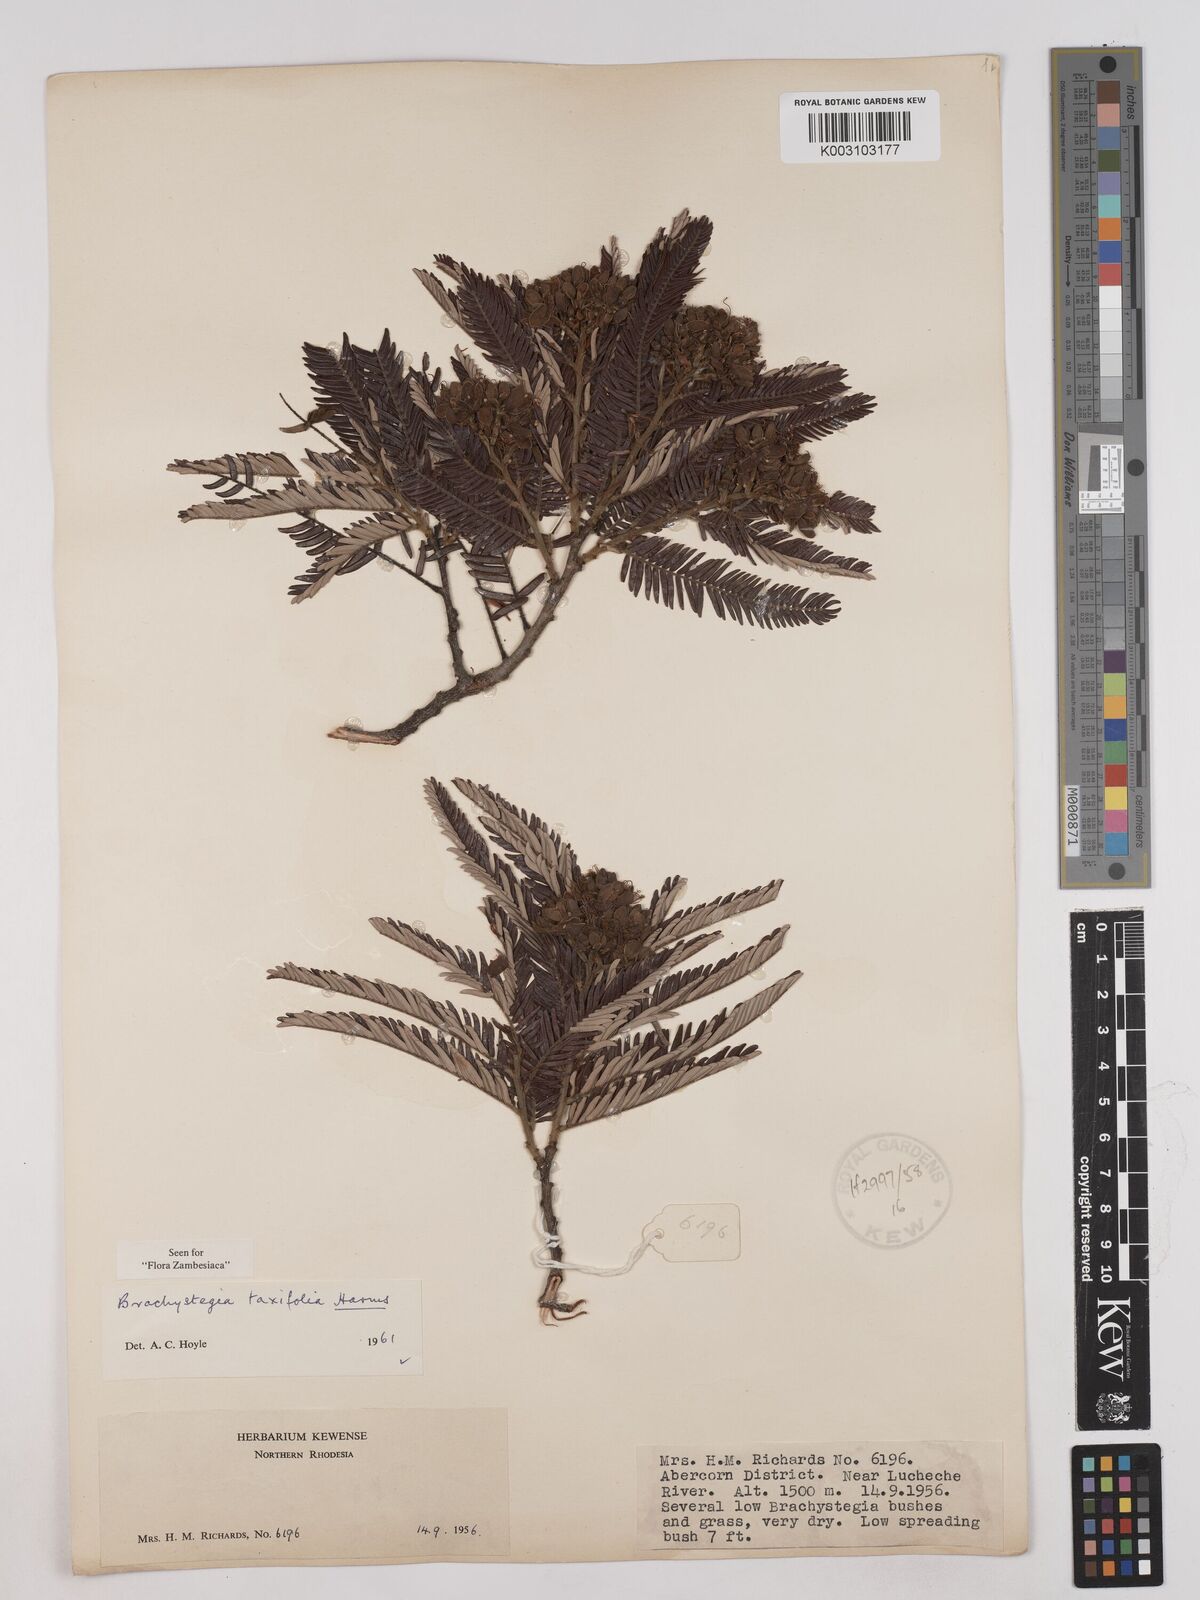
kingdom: Plantae
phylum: Tracheophyta
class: Magnoliopsida
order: Fabales
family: Fabaceae
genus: Brachystegia
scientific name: Brachystegia taxifolia
